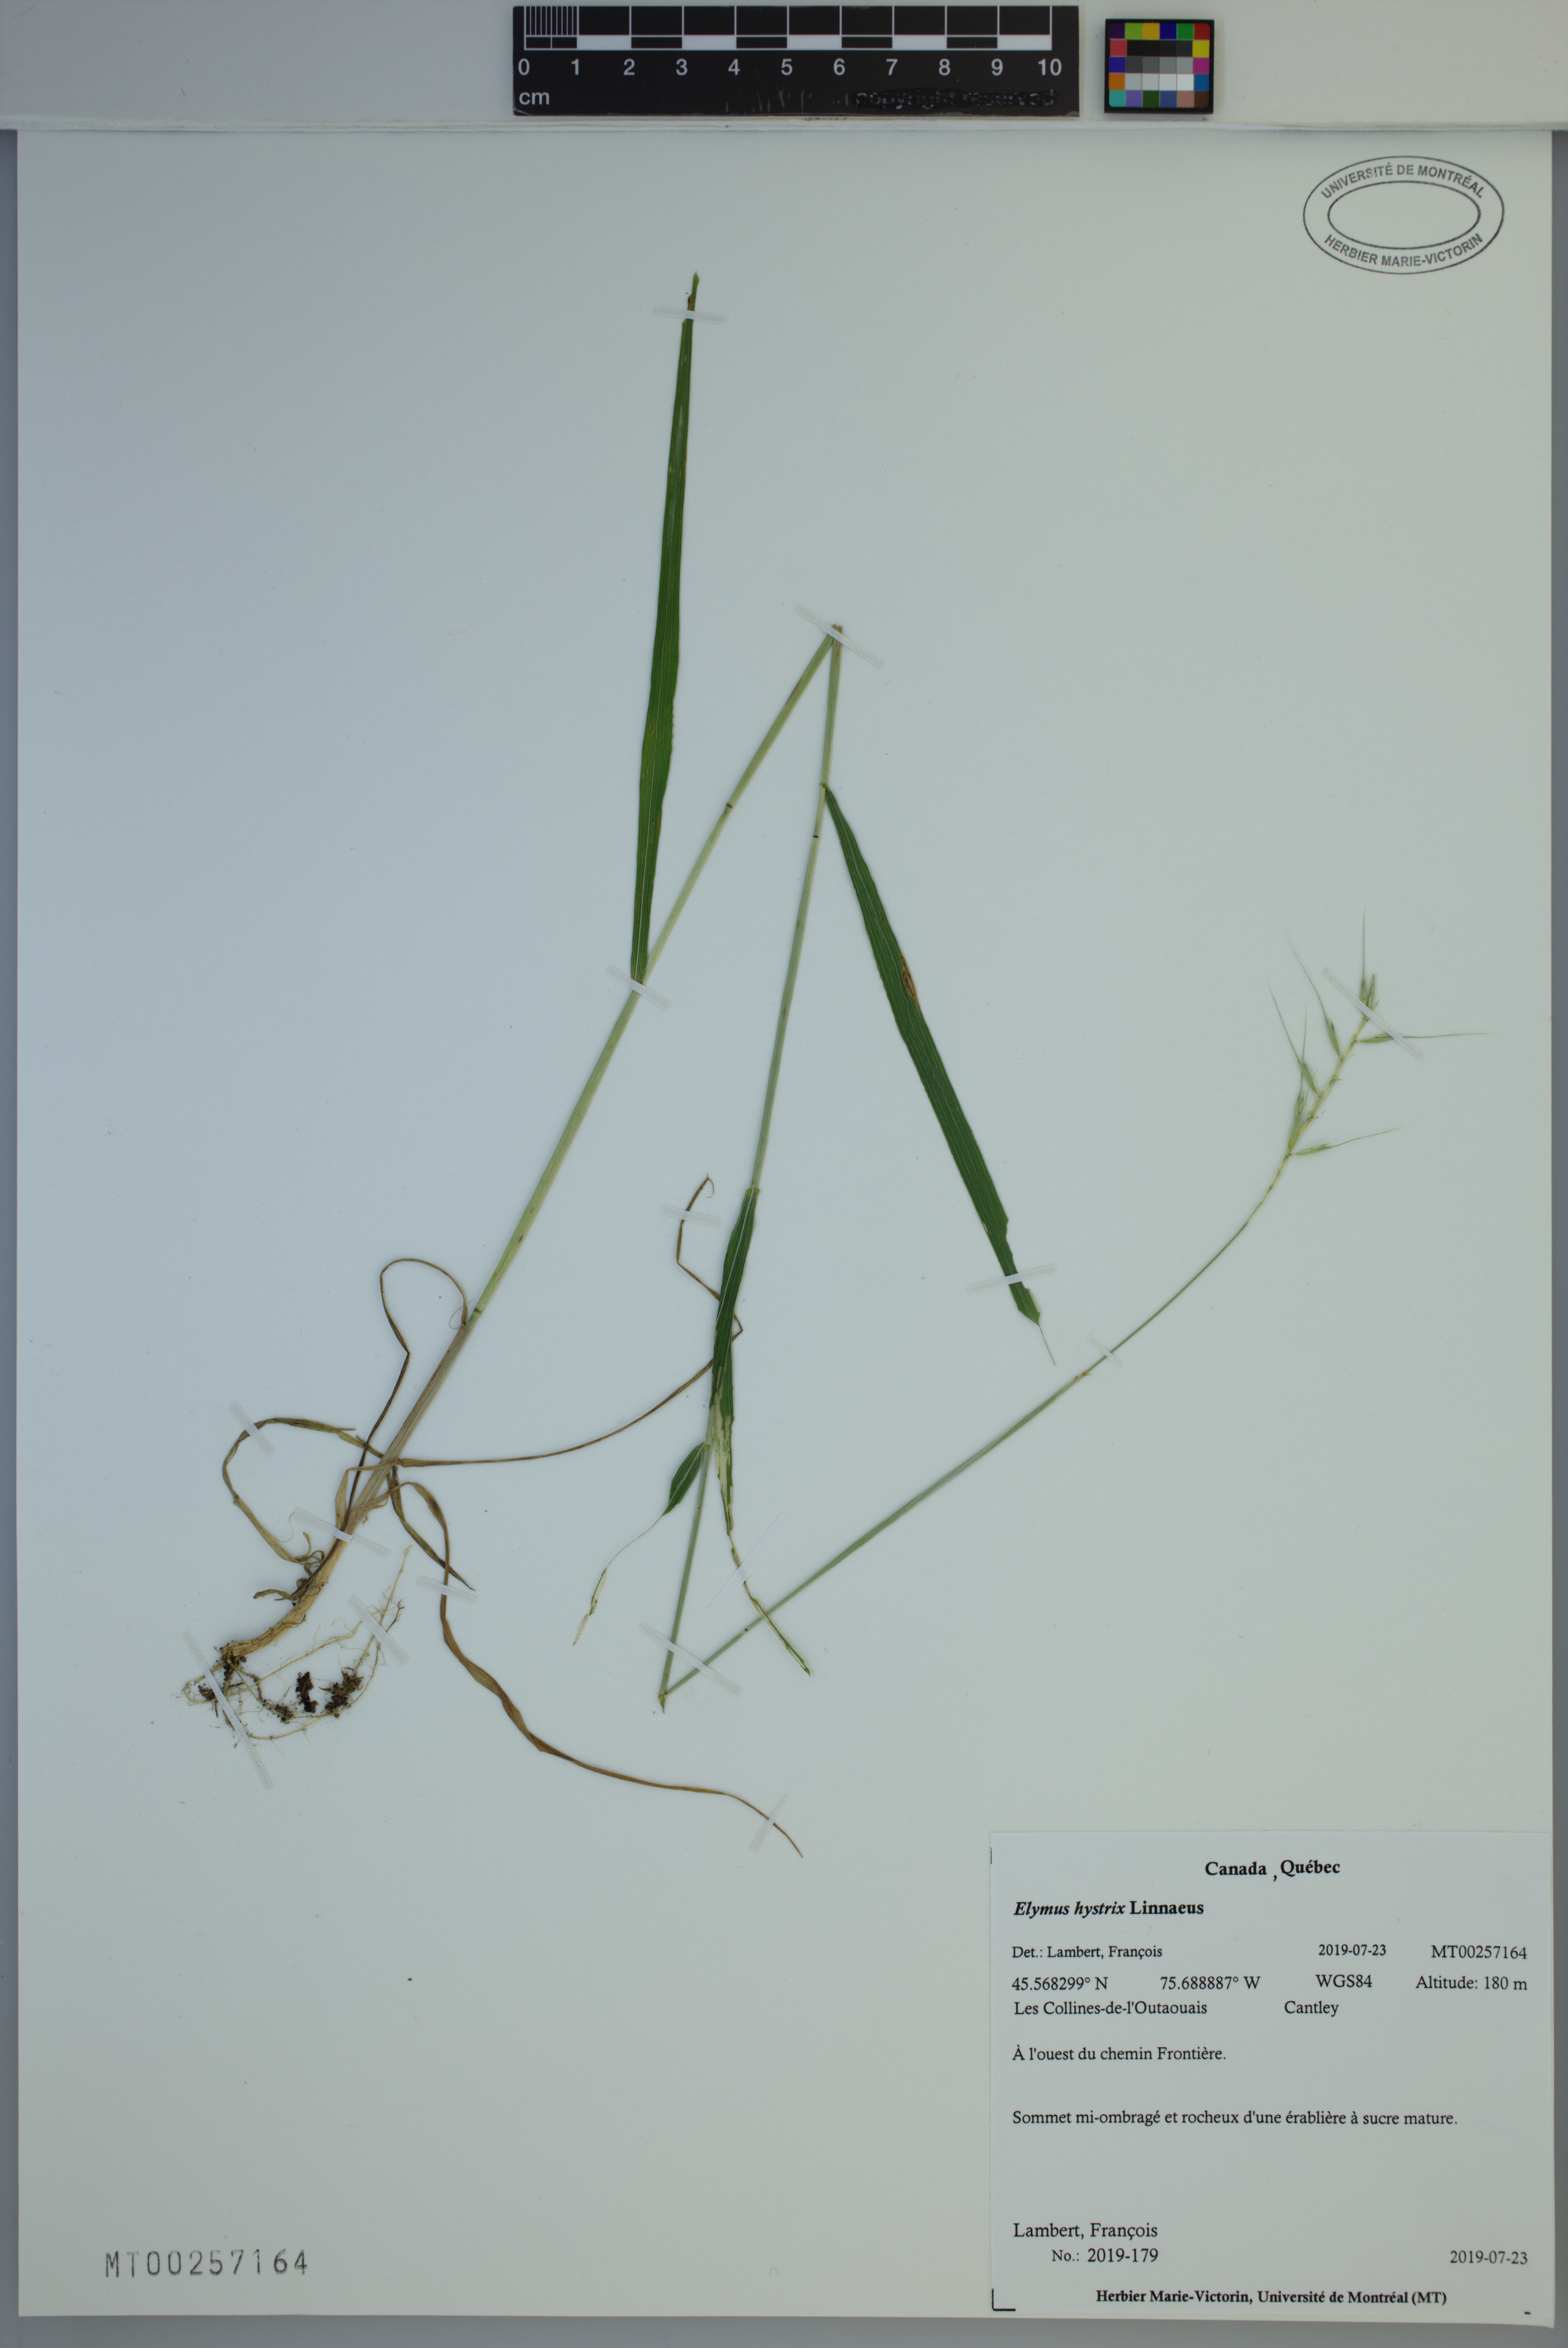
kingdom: Plantae
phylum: Tracheophyta
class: Liliopsida
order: Poales
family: Poaceae
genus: Elymus
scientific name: Elymus hystrix
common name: Bottlebrush grass
